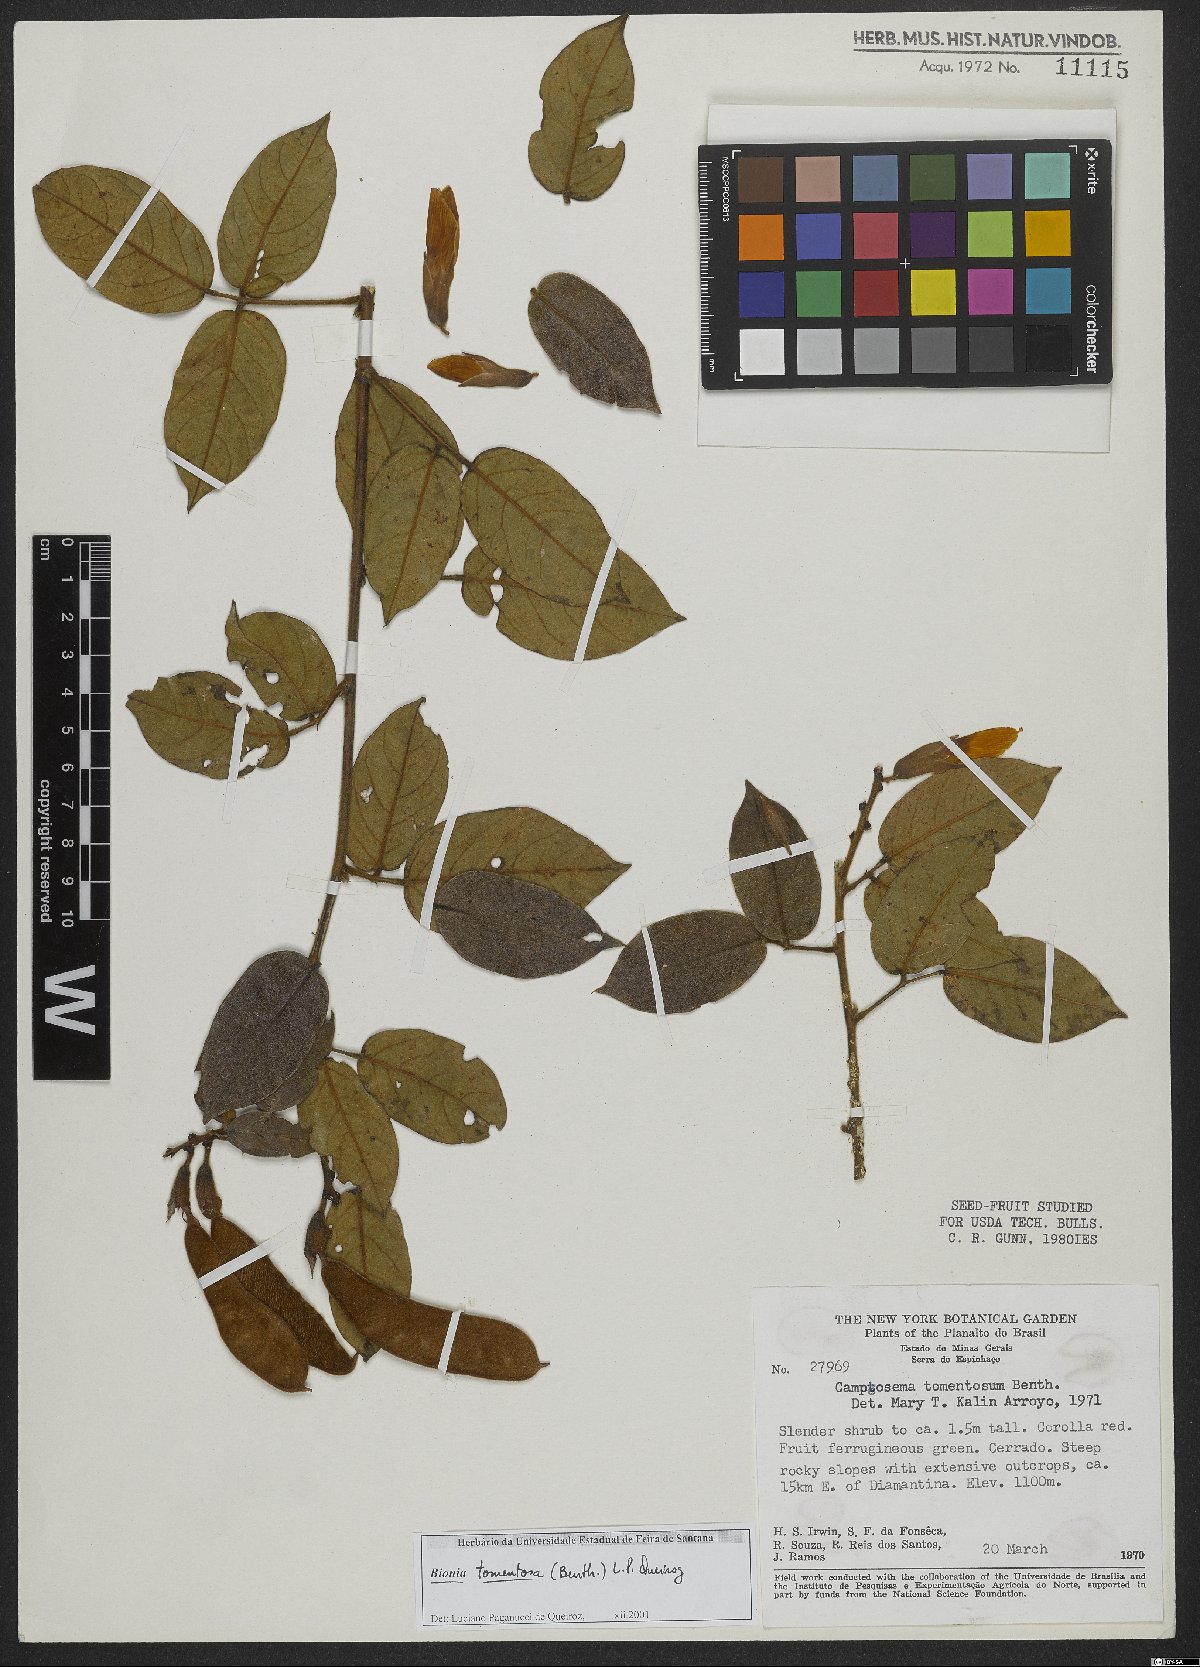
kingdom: Plantae
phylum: Tracheophyta
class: Magnoliopsida
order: Fabales
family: Fabaceae
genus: Camptosema
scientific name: Camptosema tomentosum
